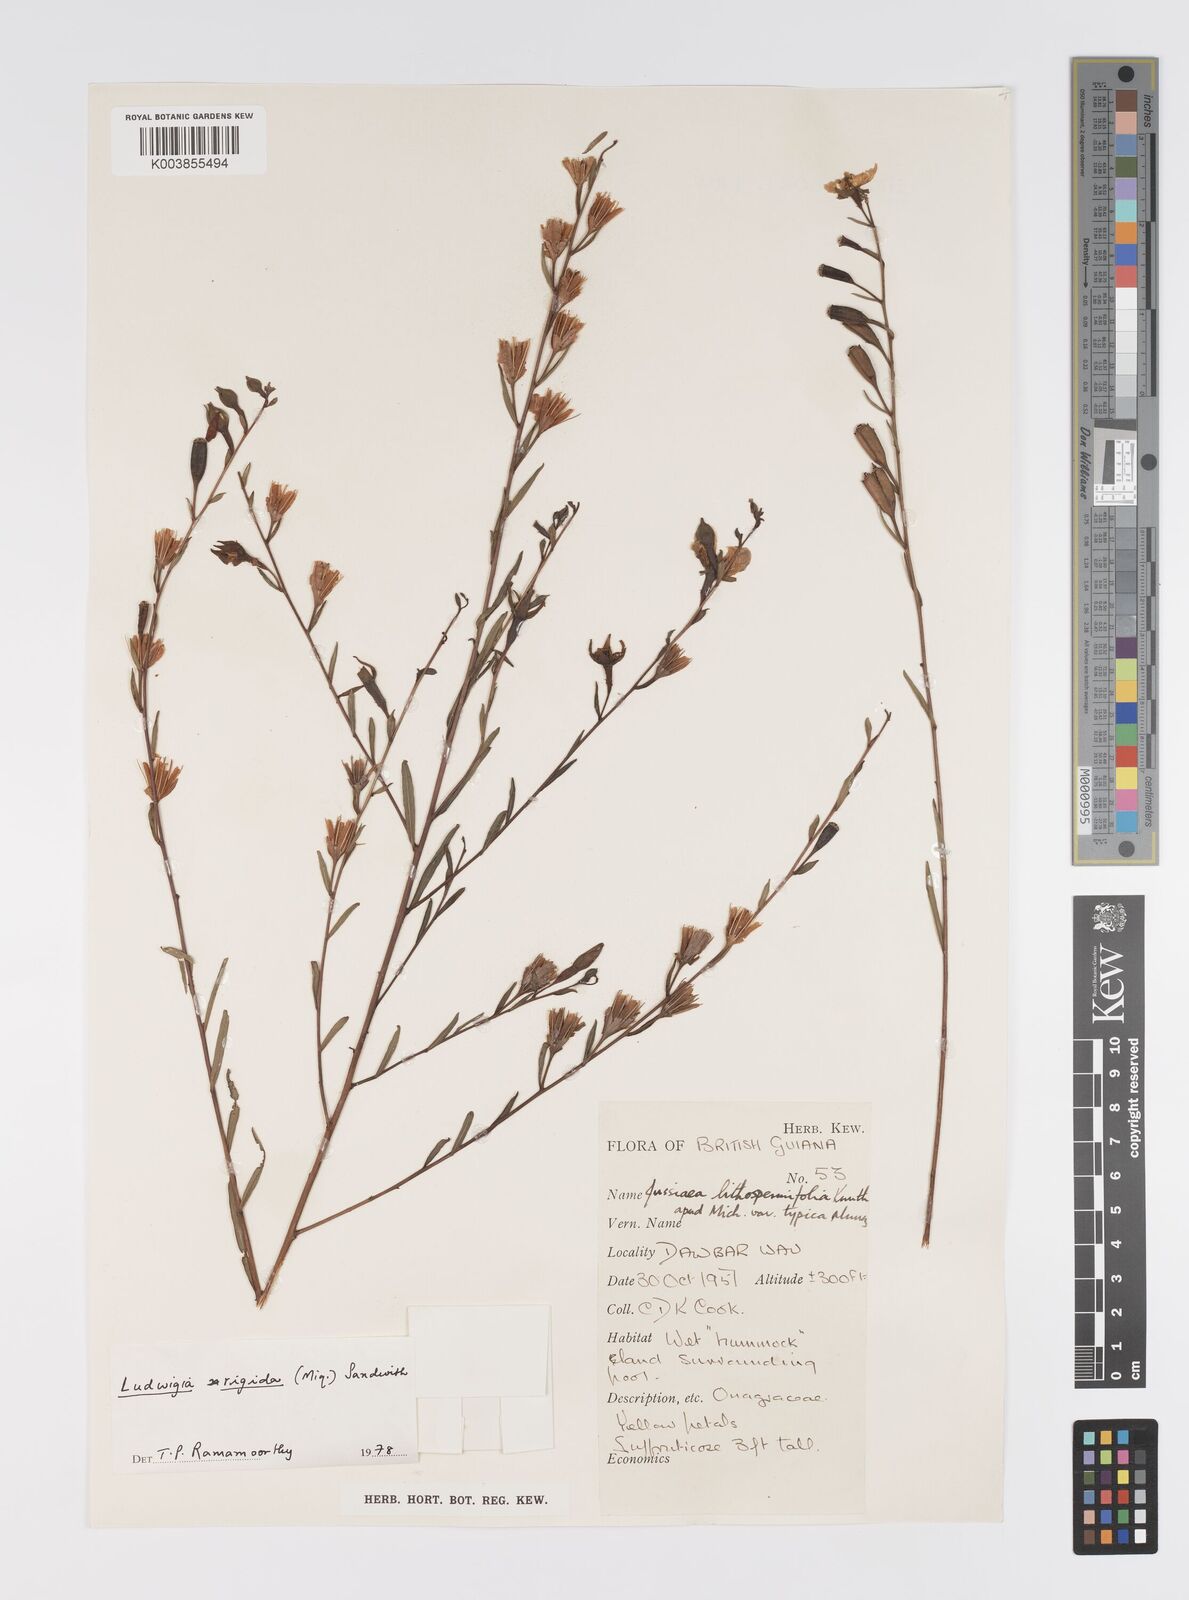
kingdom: Plantae
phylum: Tracheophyta
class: Magnoliopsida
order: Myrtales
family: Onagraceae
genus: Ludwigia
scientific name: Ludwigia rigida
